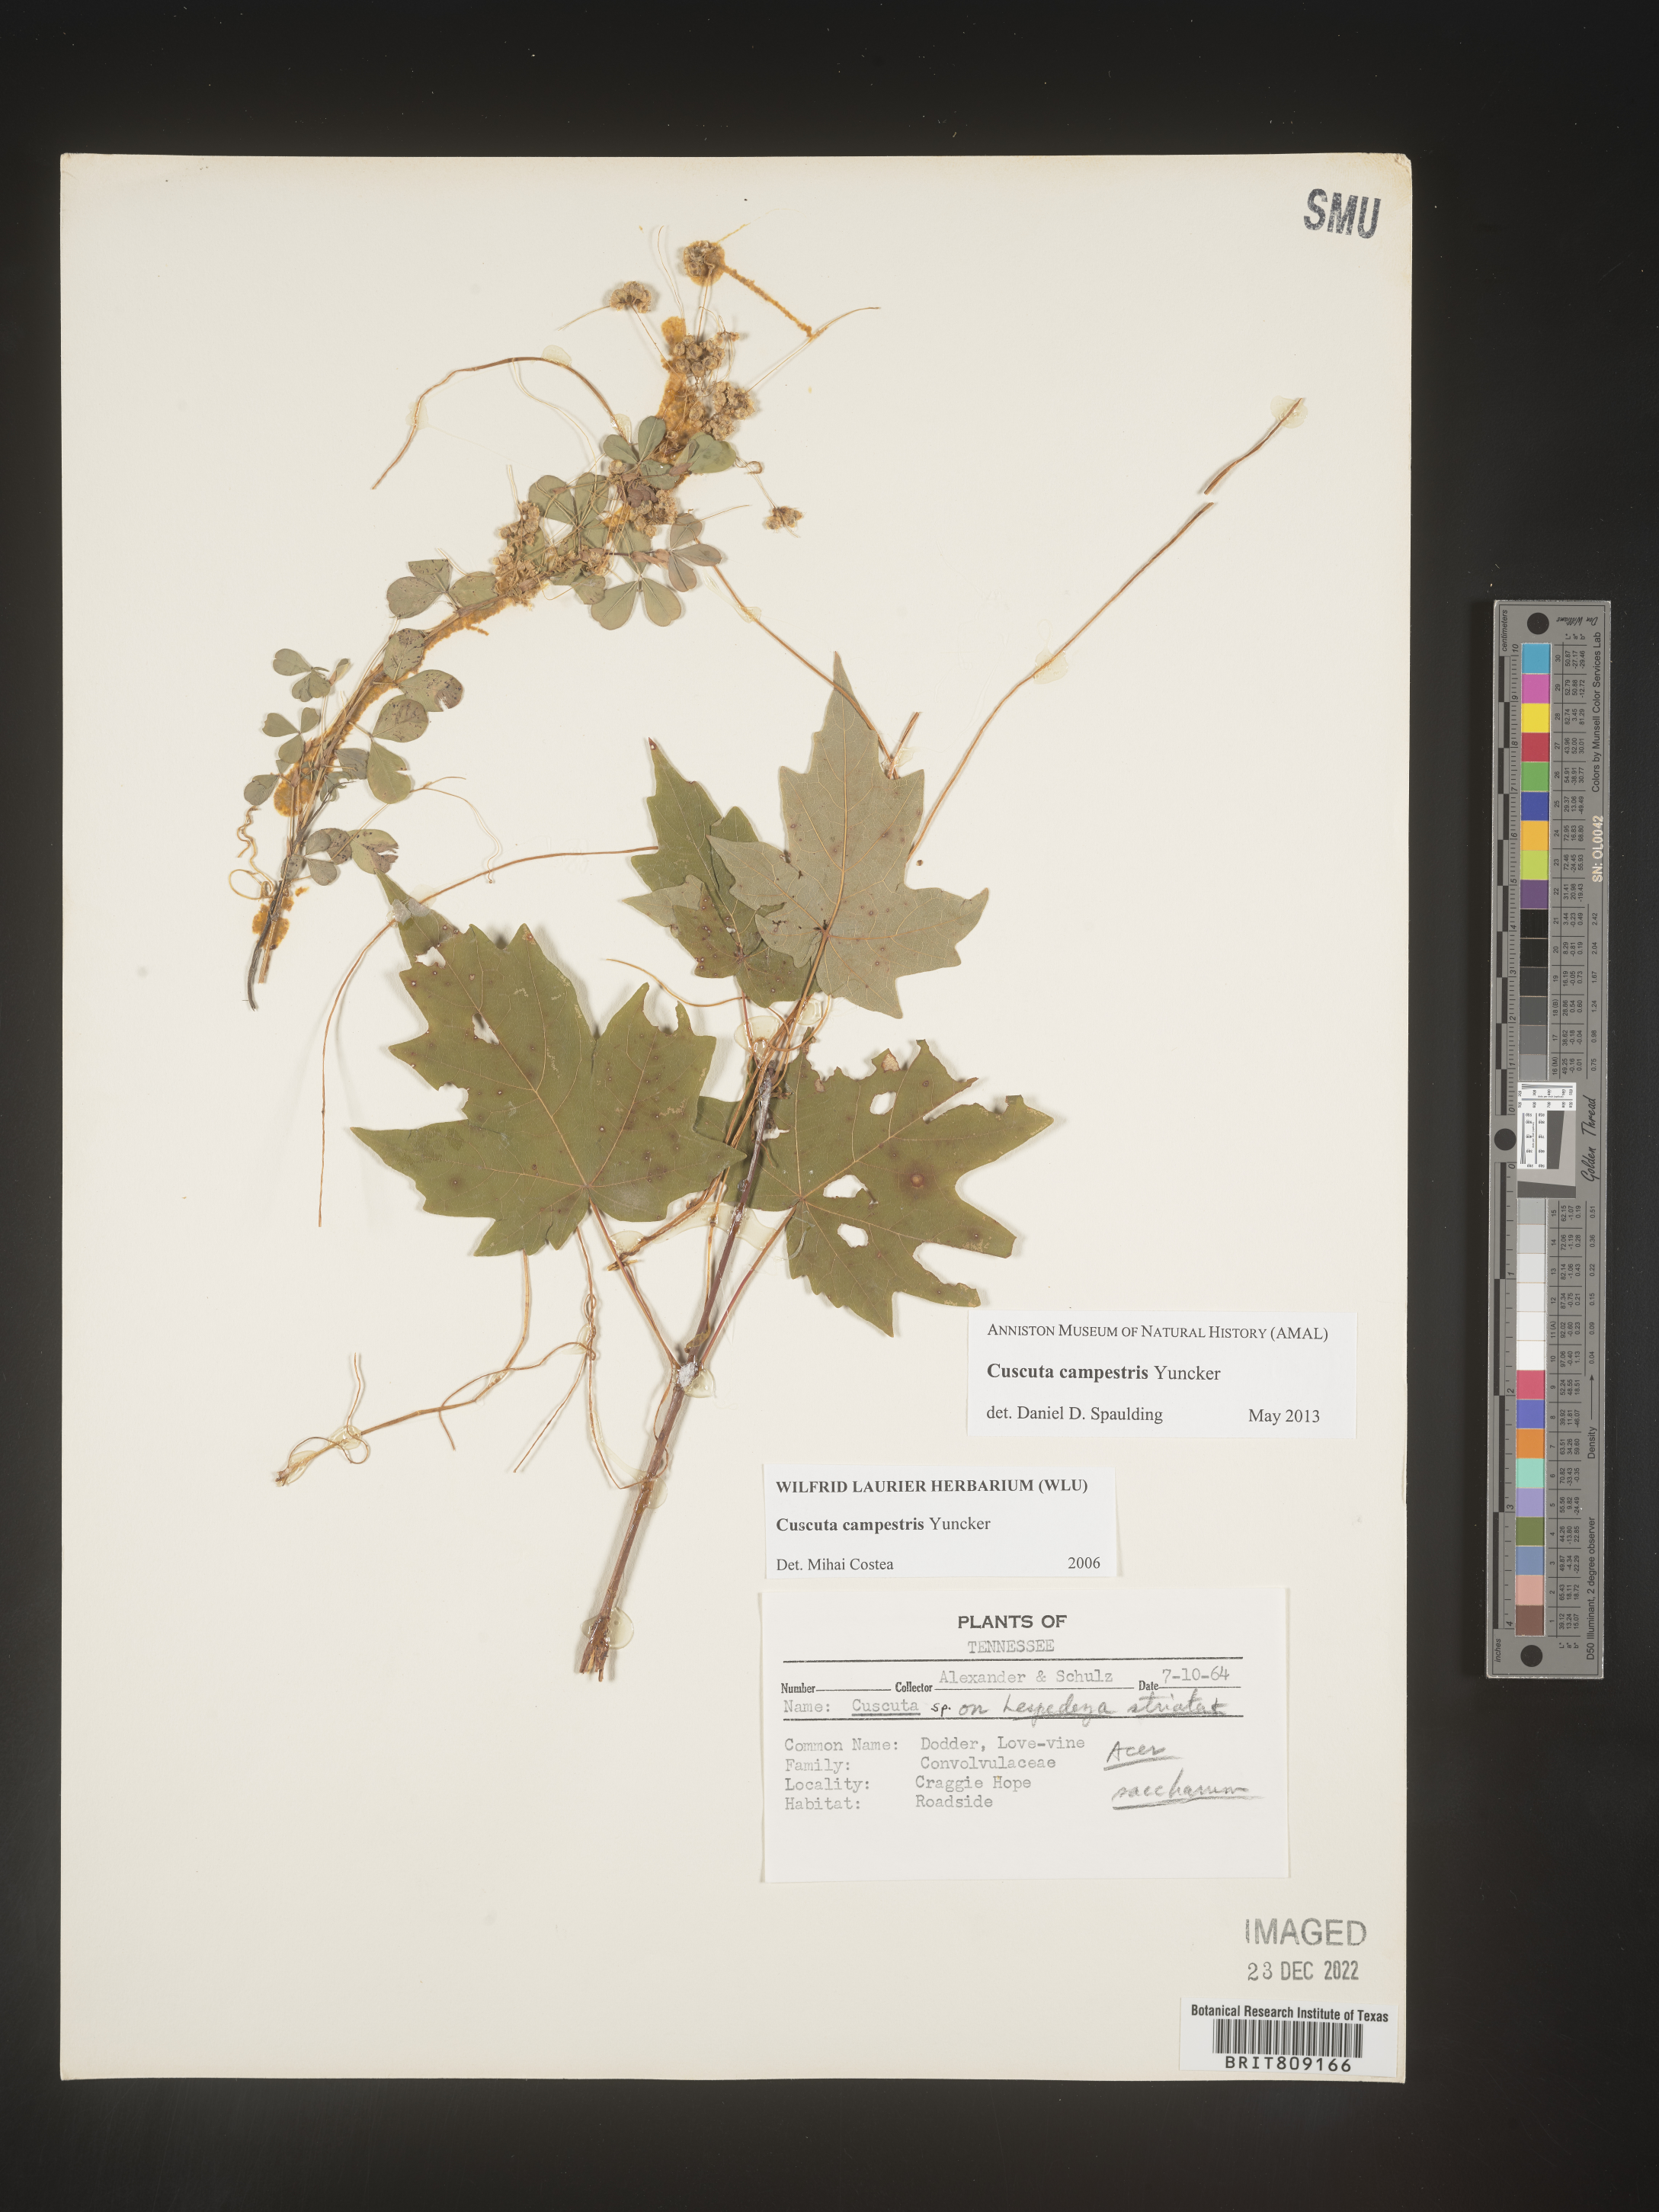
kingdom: Plantae
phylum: Tracheophyta
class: Magnoliopsida
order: Solanales
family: Convolvulaceae
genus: Cuscuta
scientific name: Cuscuta campestris
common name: Yellow dodder
